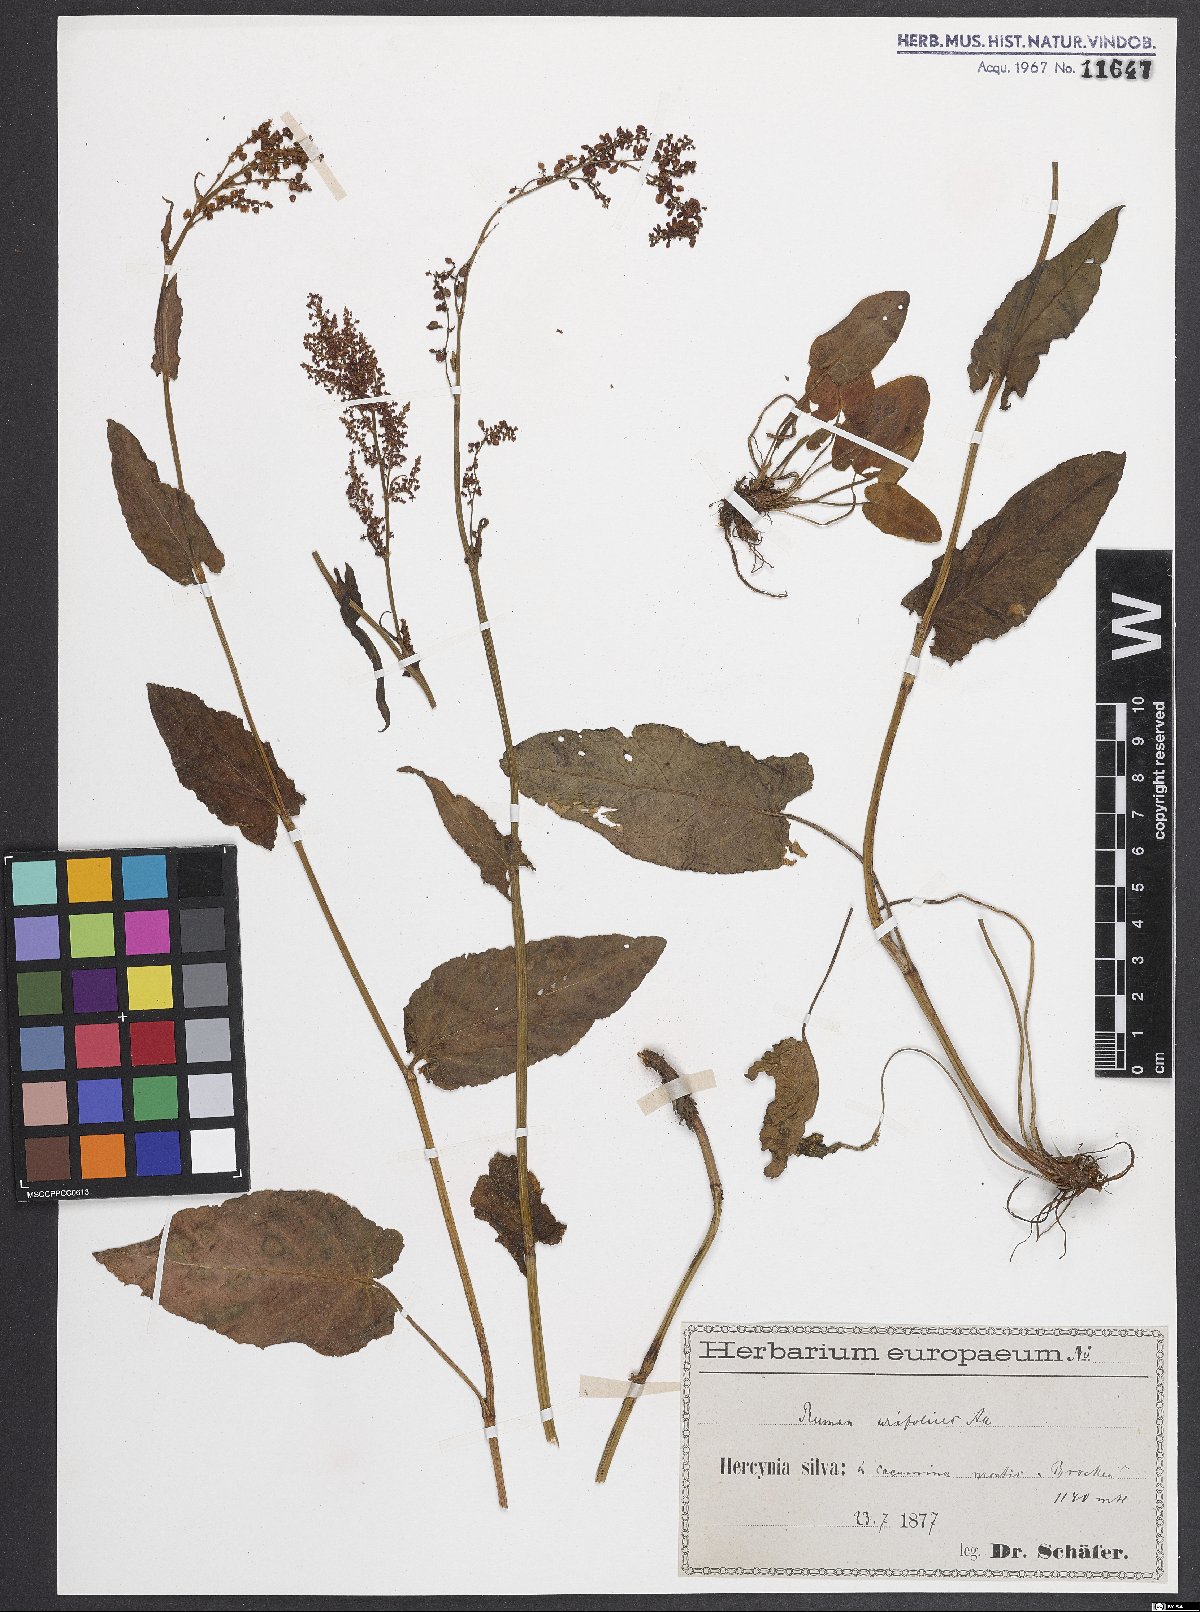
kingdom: Plantae
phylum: Tracheophyta
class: Magnoliopsida
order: Caryophyllales
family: Polygonaceae
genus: Rumex
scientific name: Rumex arifolius
